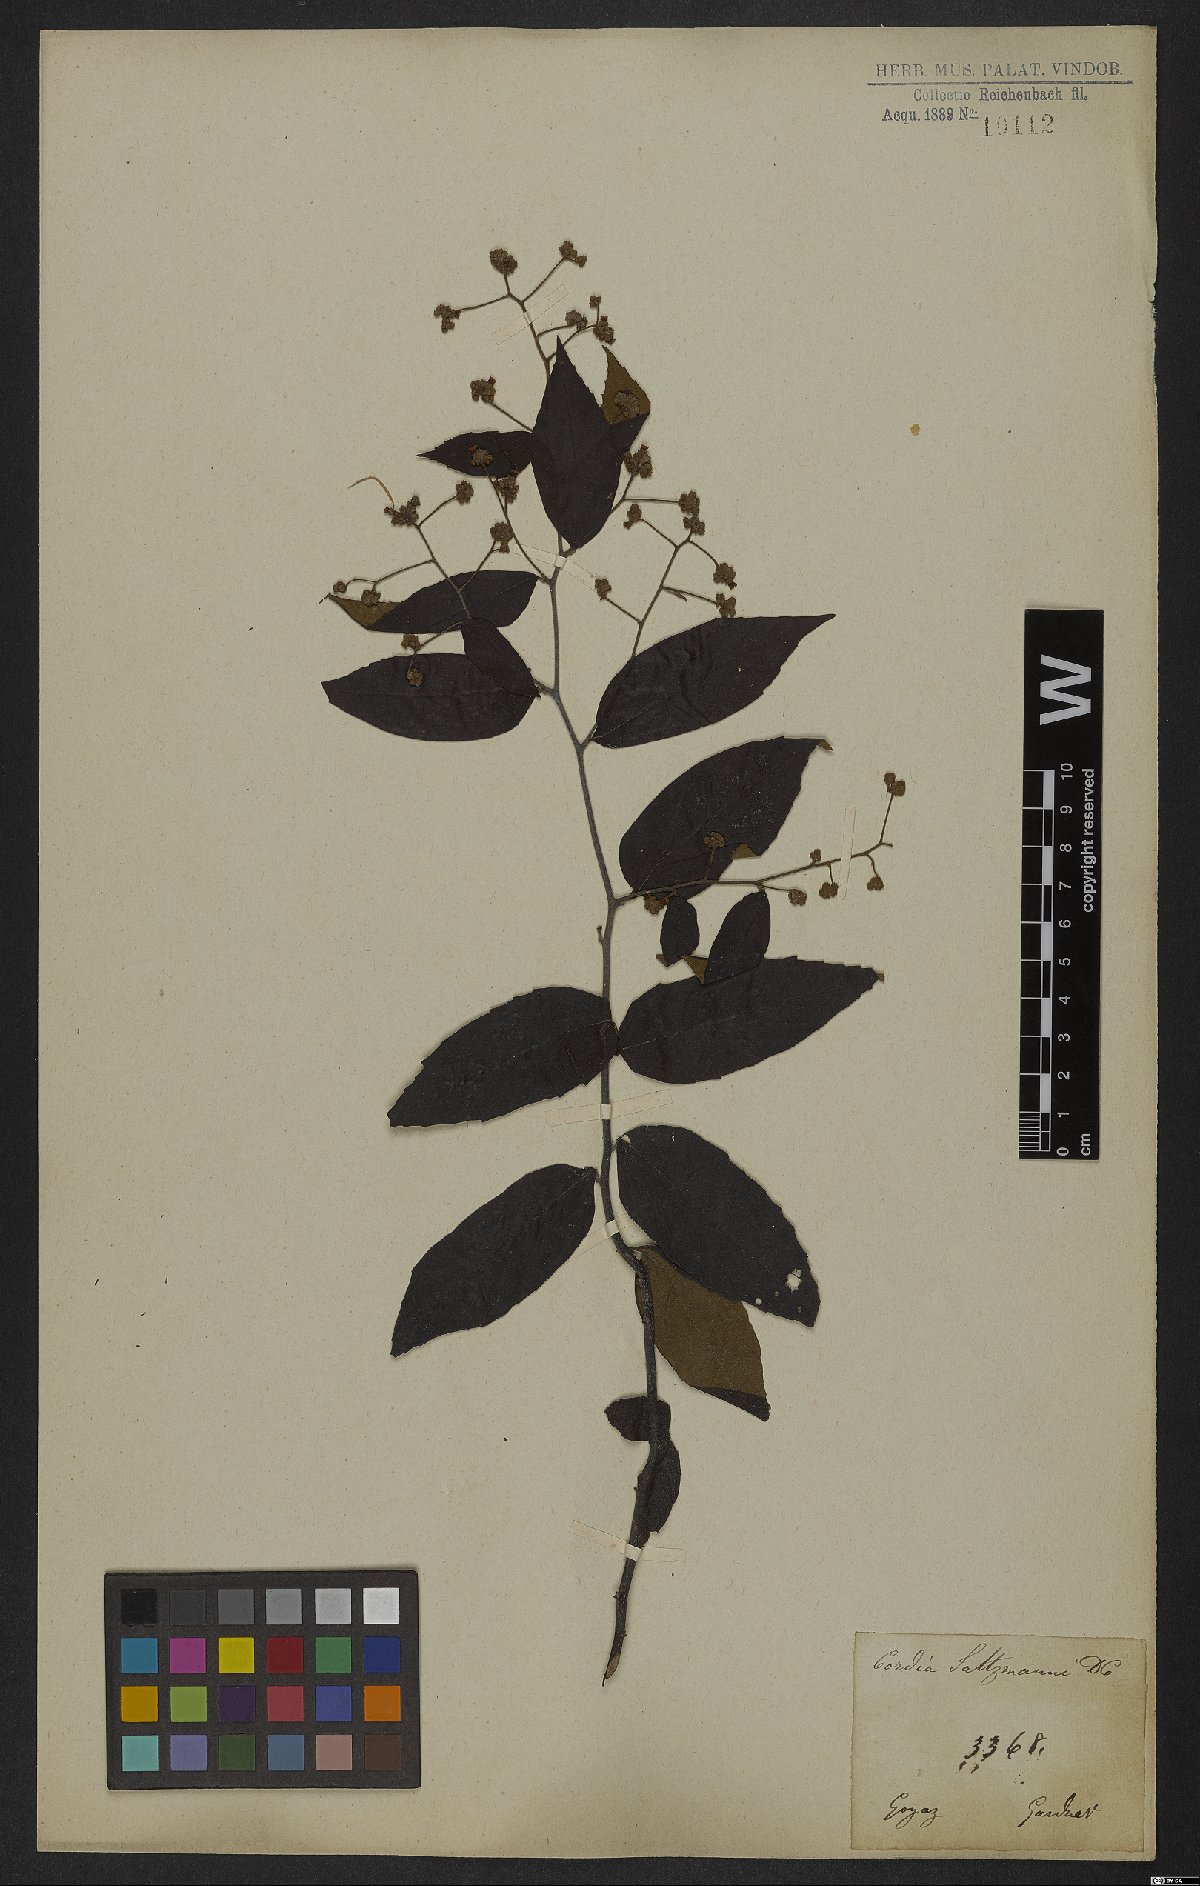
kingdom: Plantae
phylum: Tracheophyta
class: Magnoliopsida
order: Boraginales
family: Cordiaceae
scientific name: Cordiaceae
